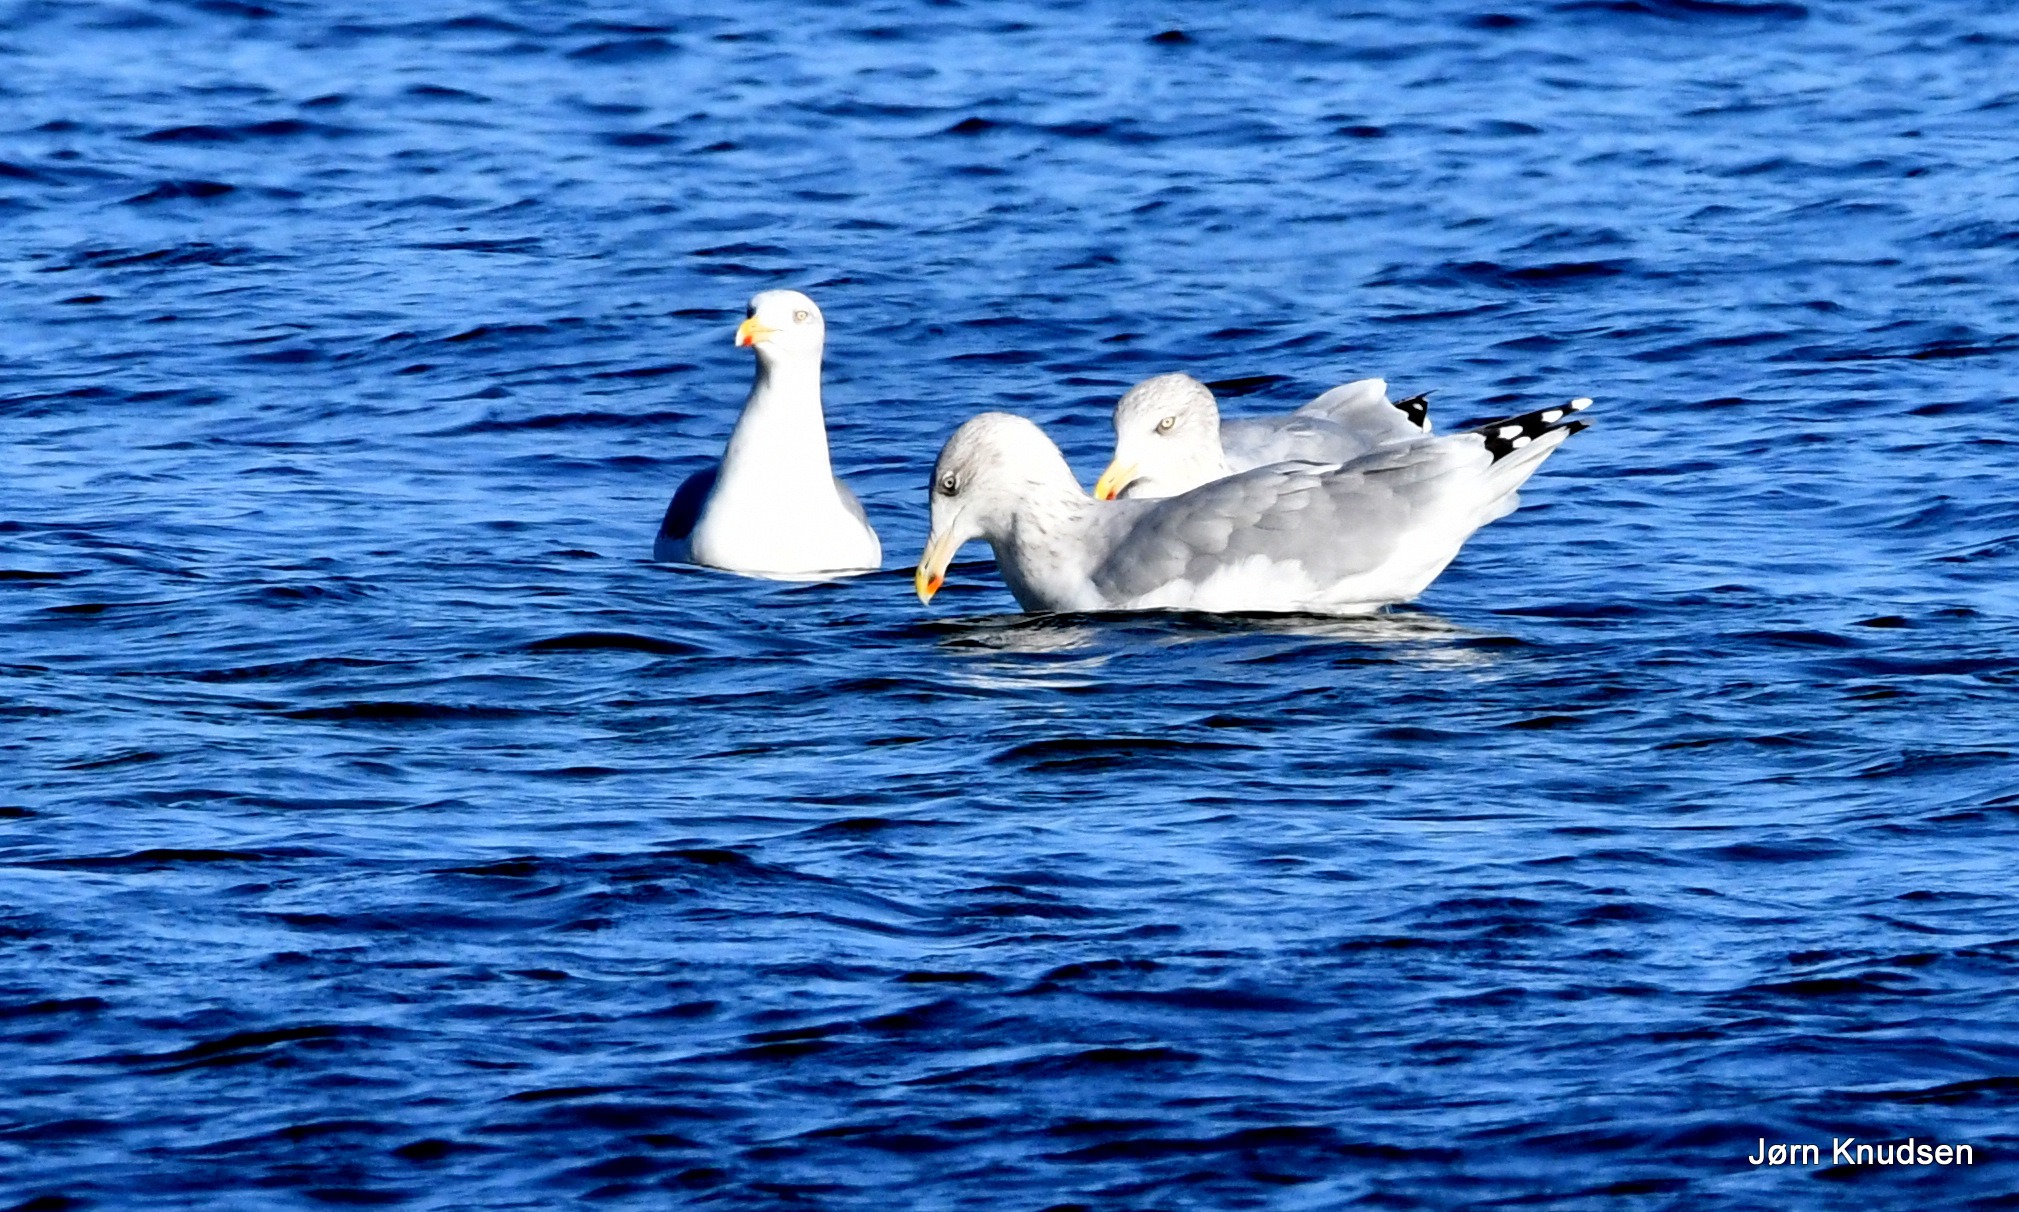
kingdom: Animalia
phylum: Chordata
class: Aves
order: Charadriiformes
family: Laridae
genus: Larus
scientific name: Larus argentatus
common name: Sølvmåge
